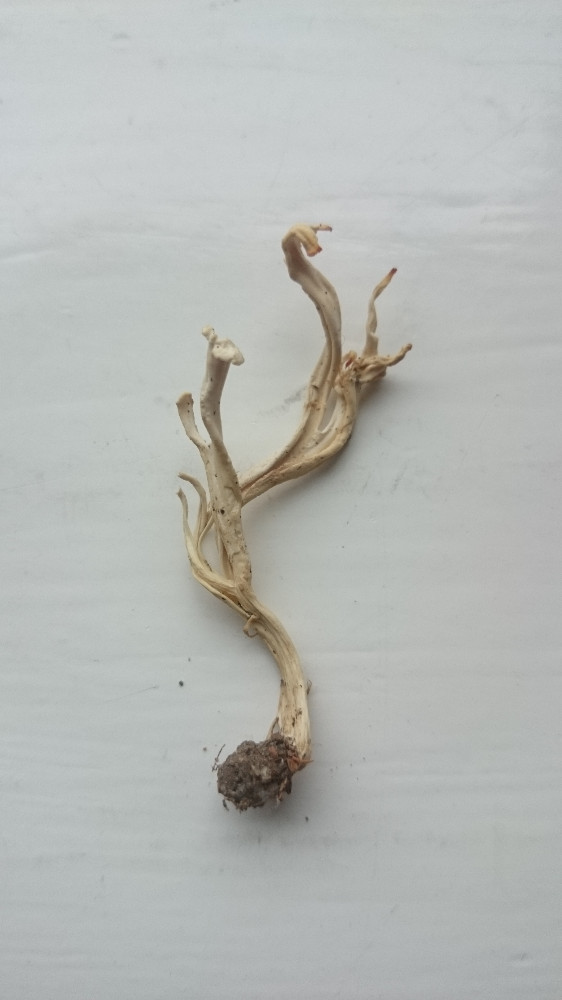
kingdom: Fungi
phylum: Basidiomycota
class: Agaricomycetes
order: Cantharellales
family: Hydnaceae
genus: Clavulina
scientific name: Clavulina
